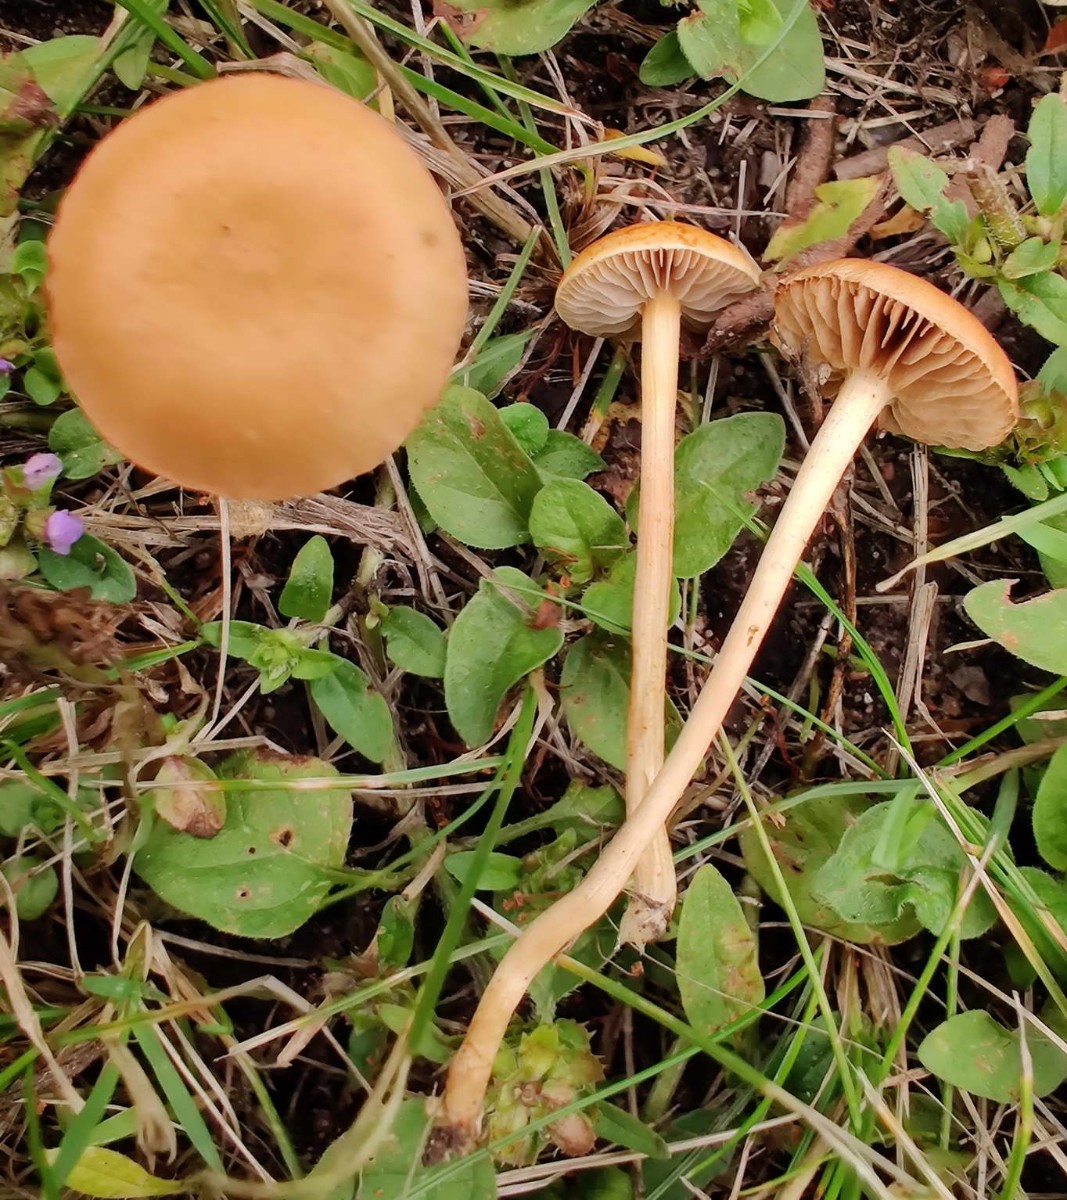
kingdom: Fungi
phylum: Basidiomycota
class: Agaricomycetes
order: Agaricales
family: Strophariaceae
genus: Agrocybe
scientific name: Agrocybe pediades
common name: almindelig agerhat
